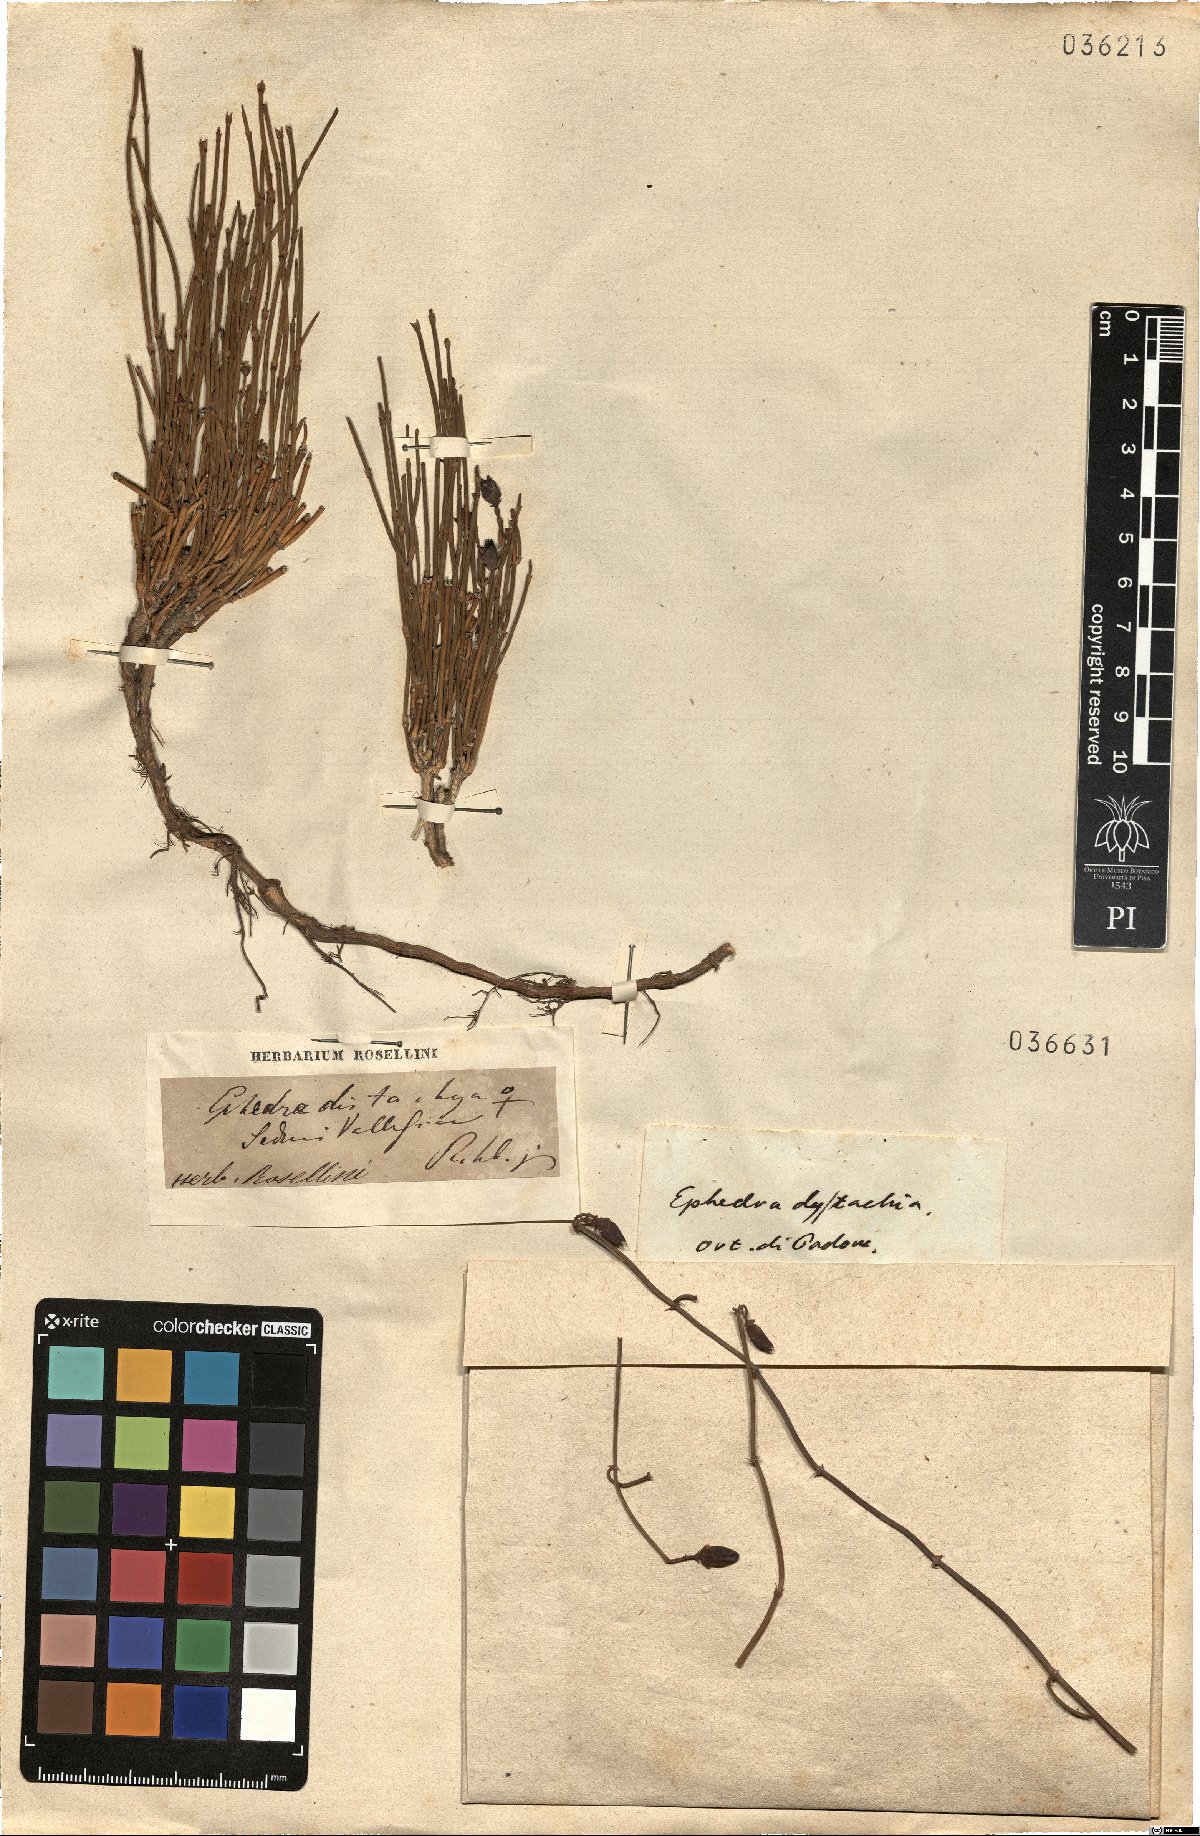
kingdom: Plantae
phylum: Tracheophyta
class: Gnetopsida
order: Ephedrales
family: Ephedraceae
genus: Ephedra
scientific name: Ephedra distachya
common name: Sea grape
